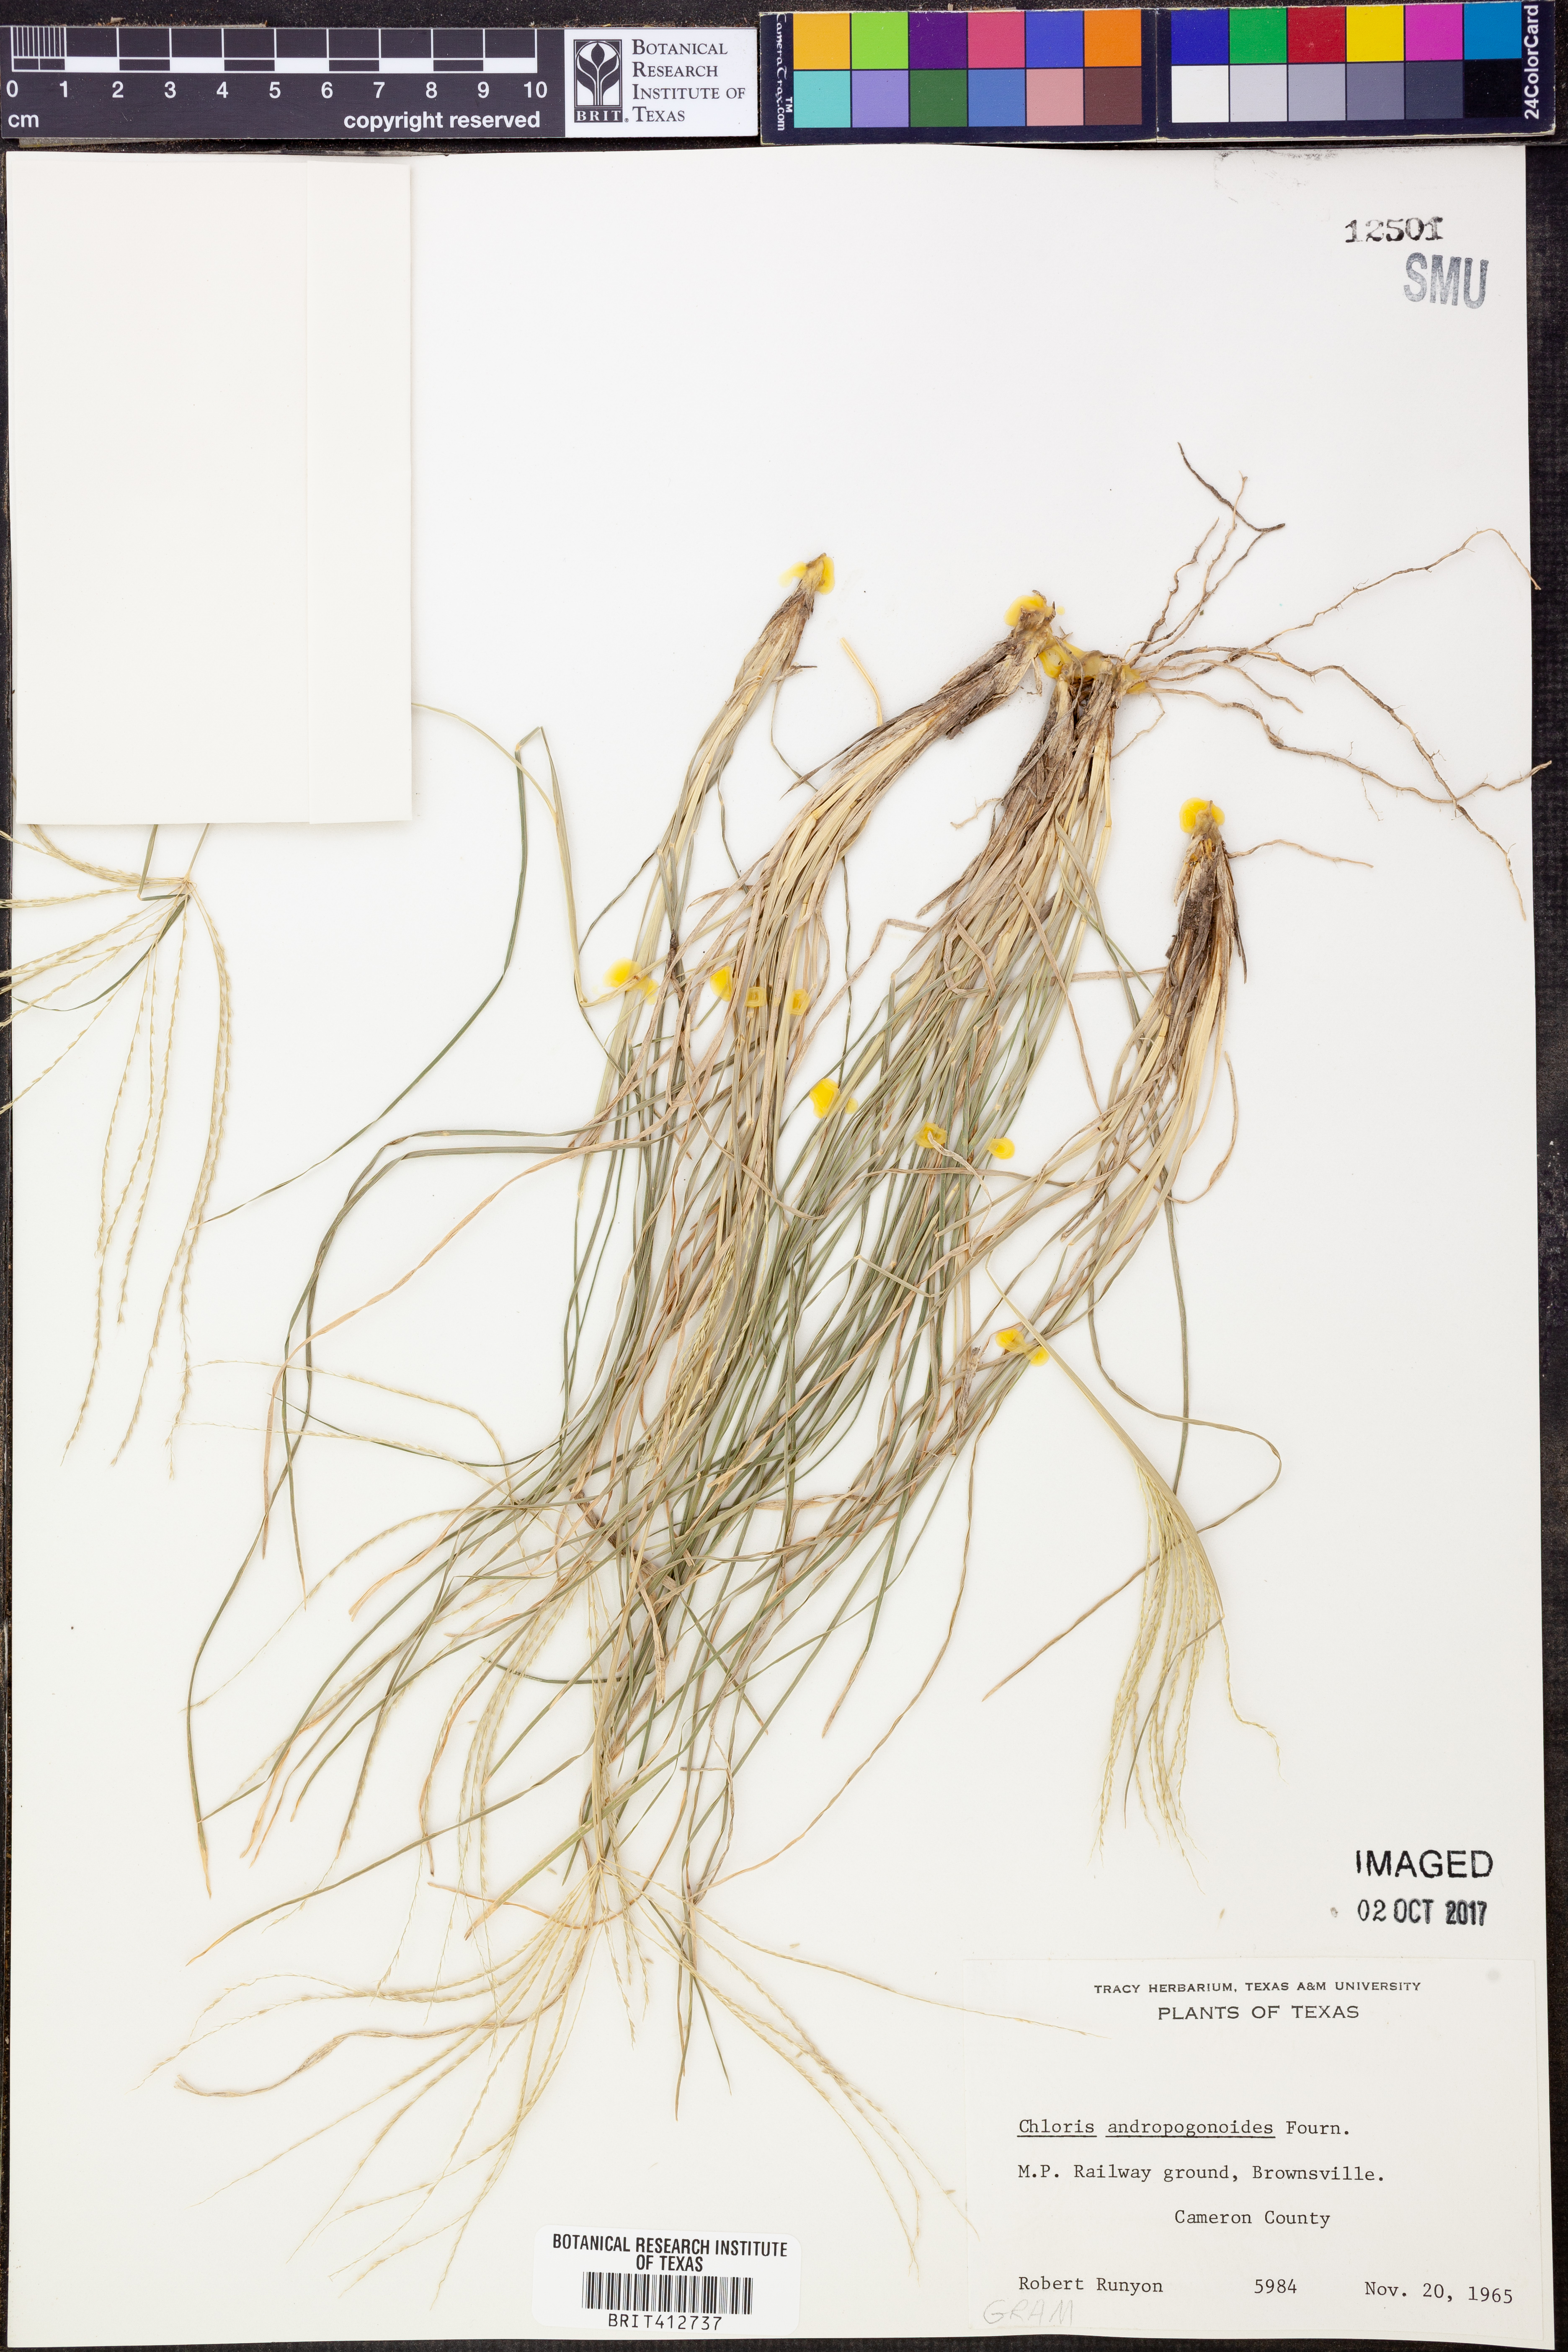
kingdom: Plantae
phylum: Tracheophyta
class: Liliopsida
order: Poales
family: Poaceae
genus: Chloris
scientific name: Chloris andropogonoides
